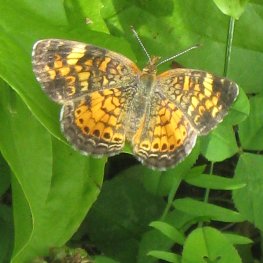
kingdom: Animalia
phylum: Arthropoda
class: Insecta
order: Lepidoptera
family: Nymphalidae
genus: Phyciodes
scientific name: Phyciodes tharos
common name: Pearl Crescent
